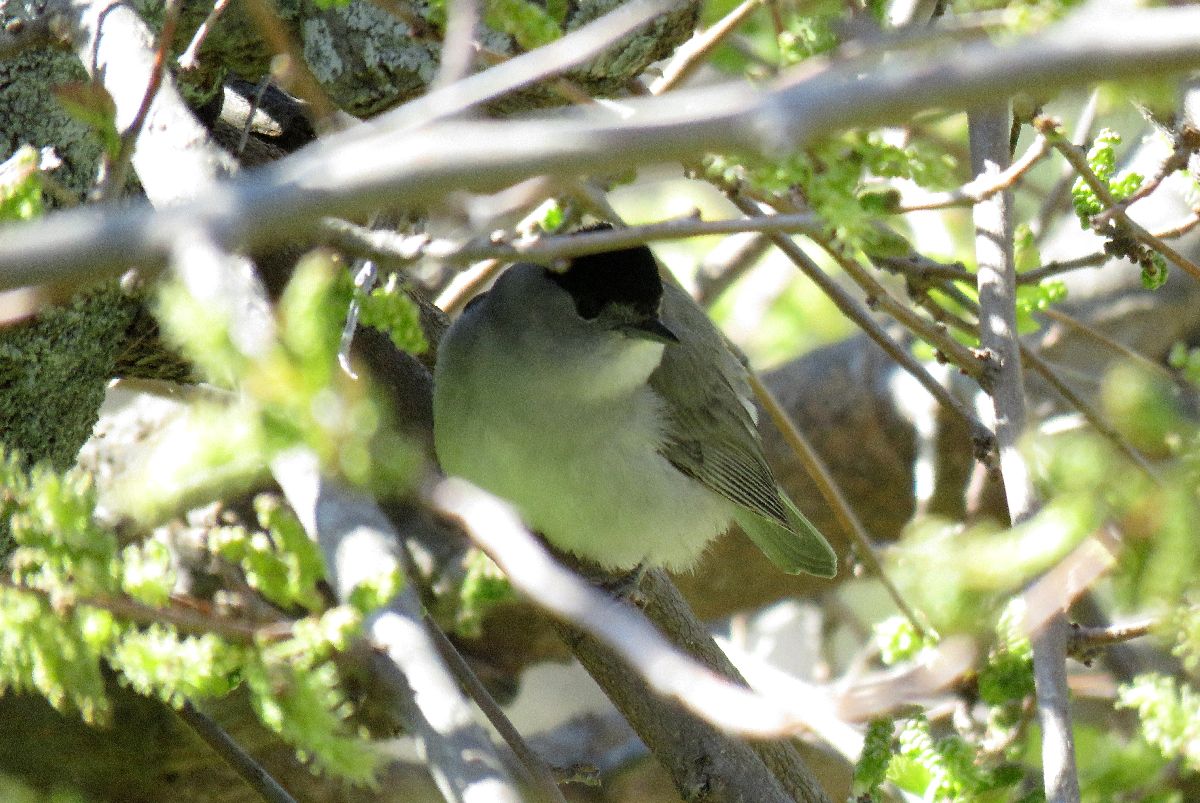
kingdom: Animalia
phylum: Chordata
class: Aves
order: Passeriformes
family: Sylviidae
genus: Sylvia
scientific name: Sylvia atricapilla
